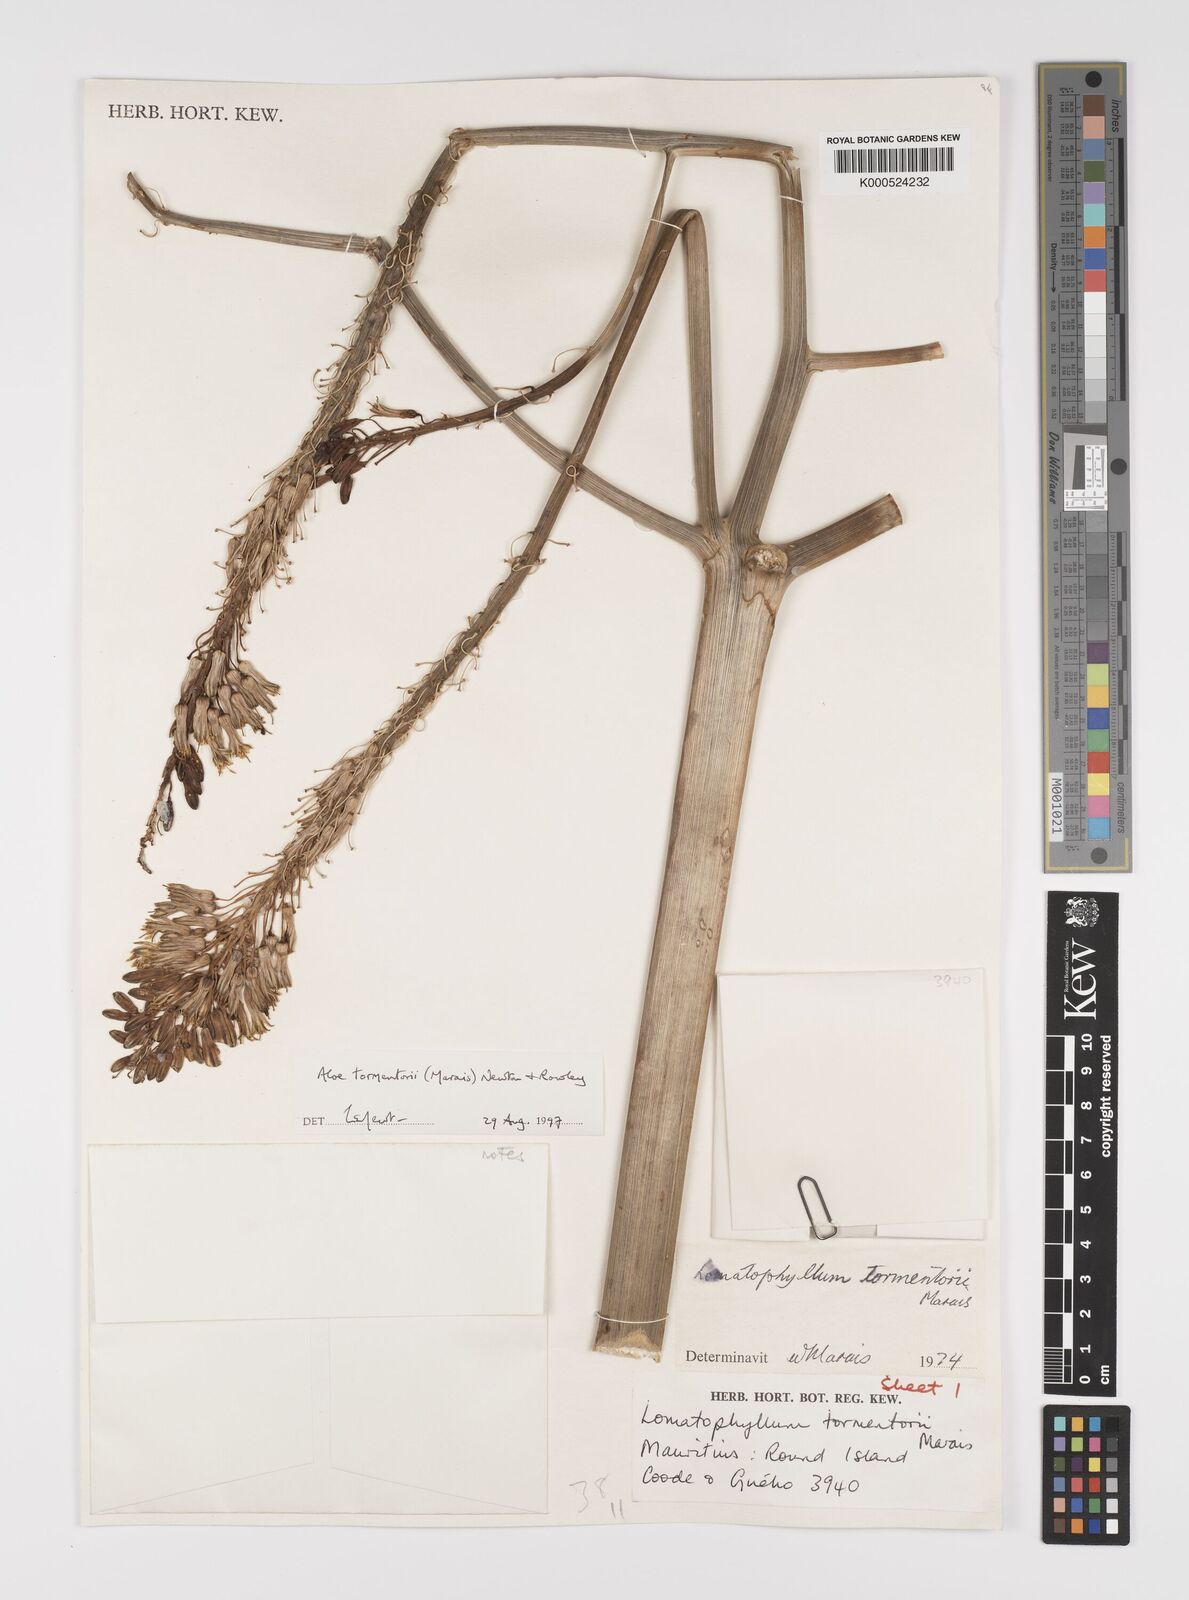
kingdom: Plantae
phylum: Tracheophyta
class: Liliopsida
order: Asparagales
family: Asphodelaceae
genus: Aloe
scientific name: Aloe tormentorii
